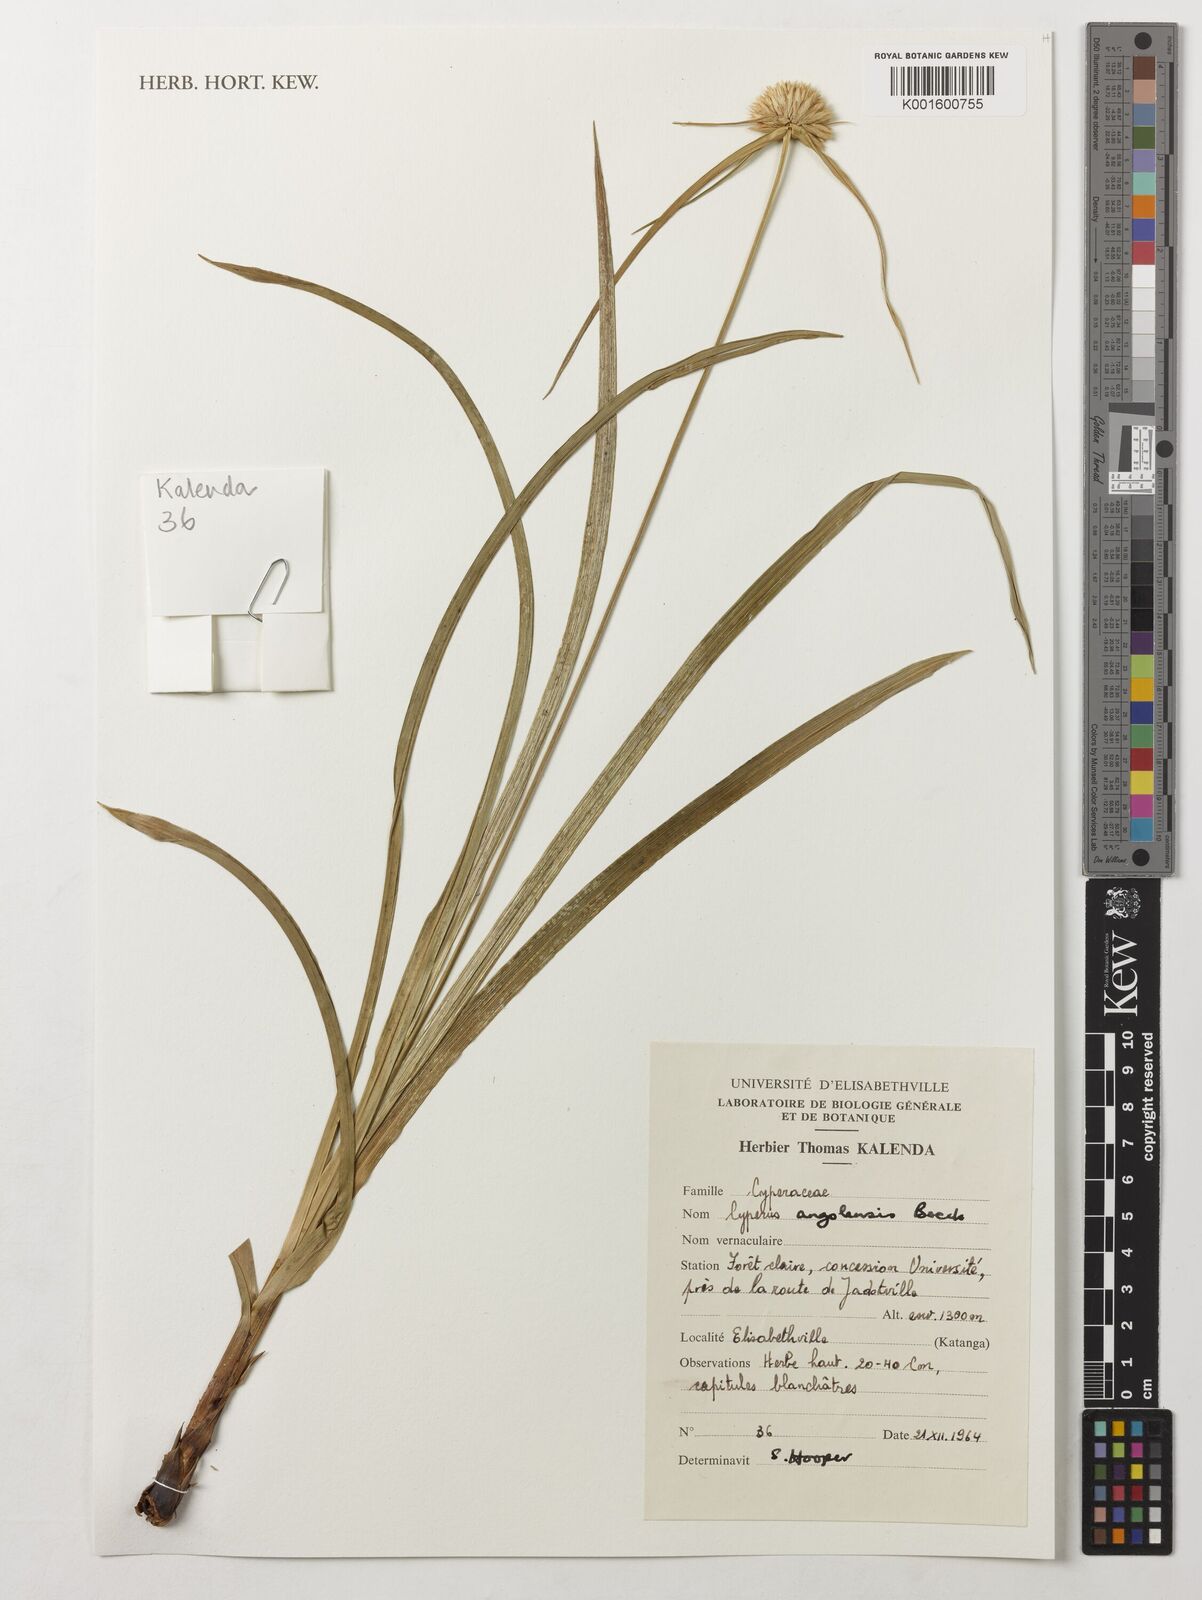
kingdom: Plantae
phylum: Tracheophyta
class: Liliopsida
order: Poales
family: Cyperaceae
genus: Cyperus
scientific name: Cyperus angolensis
